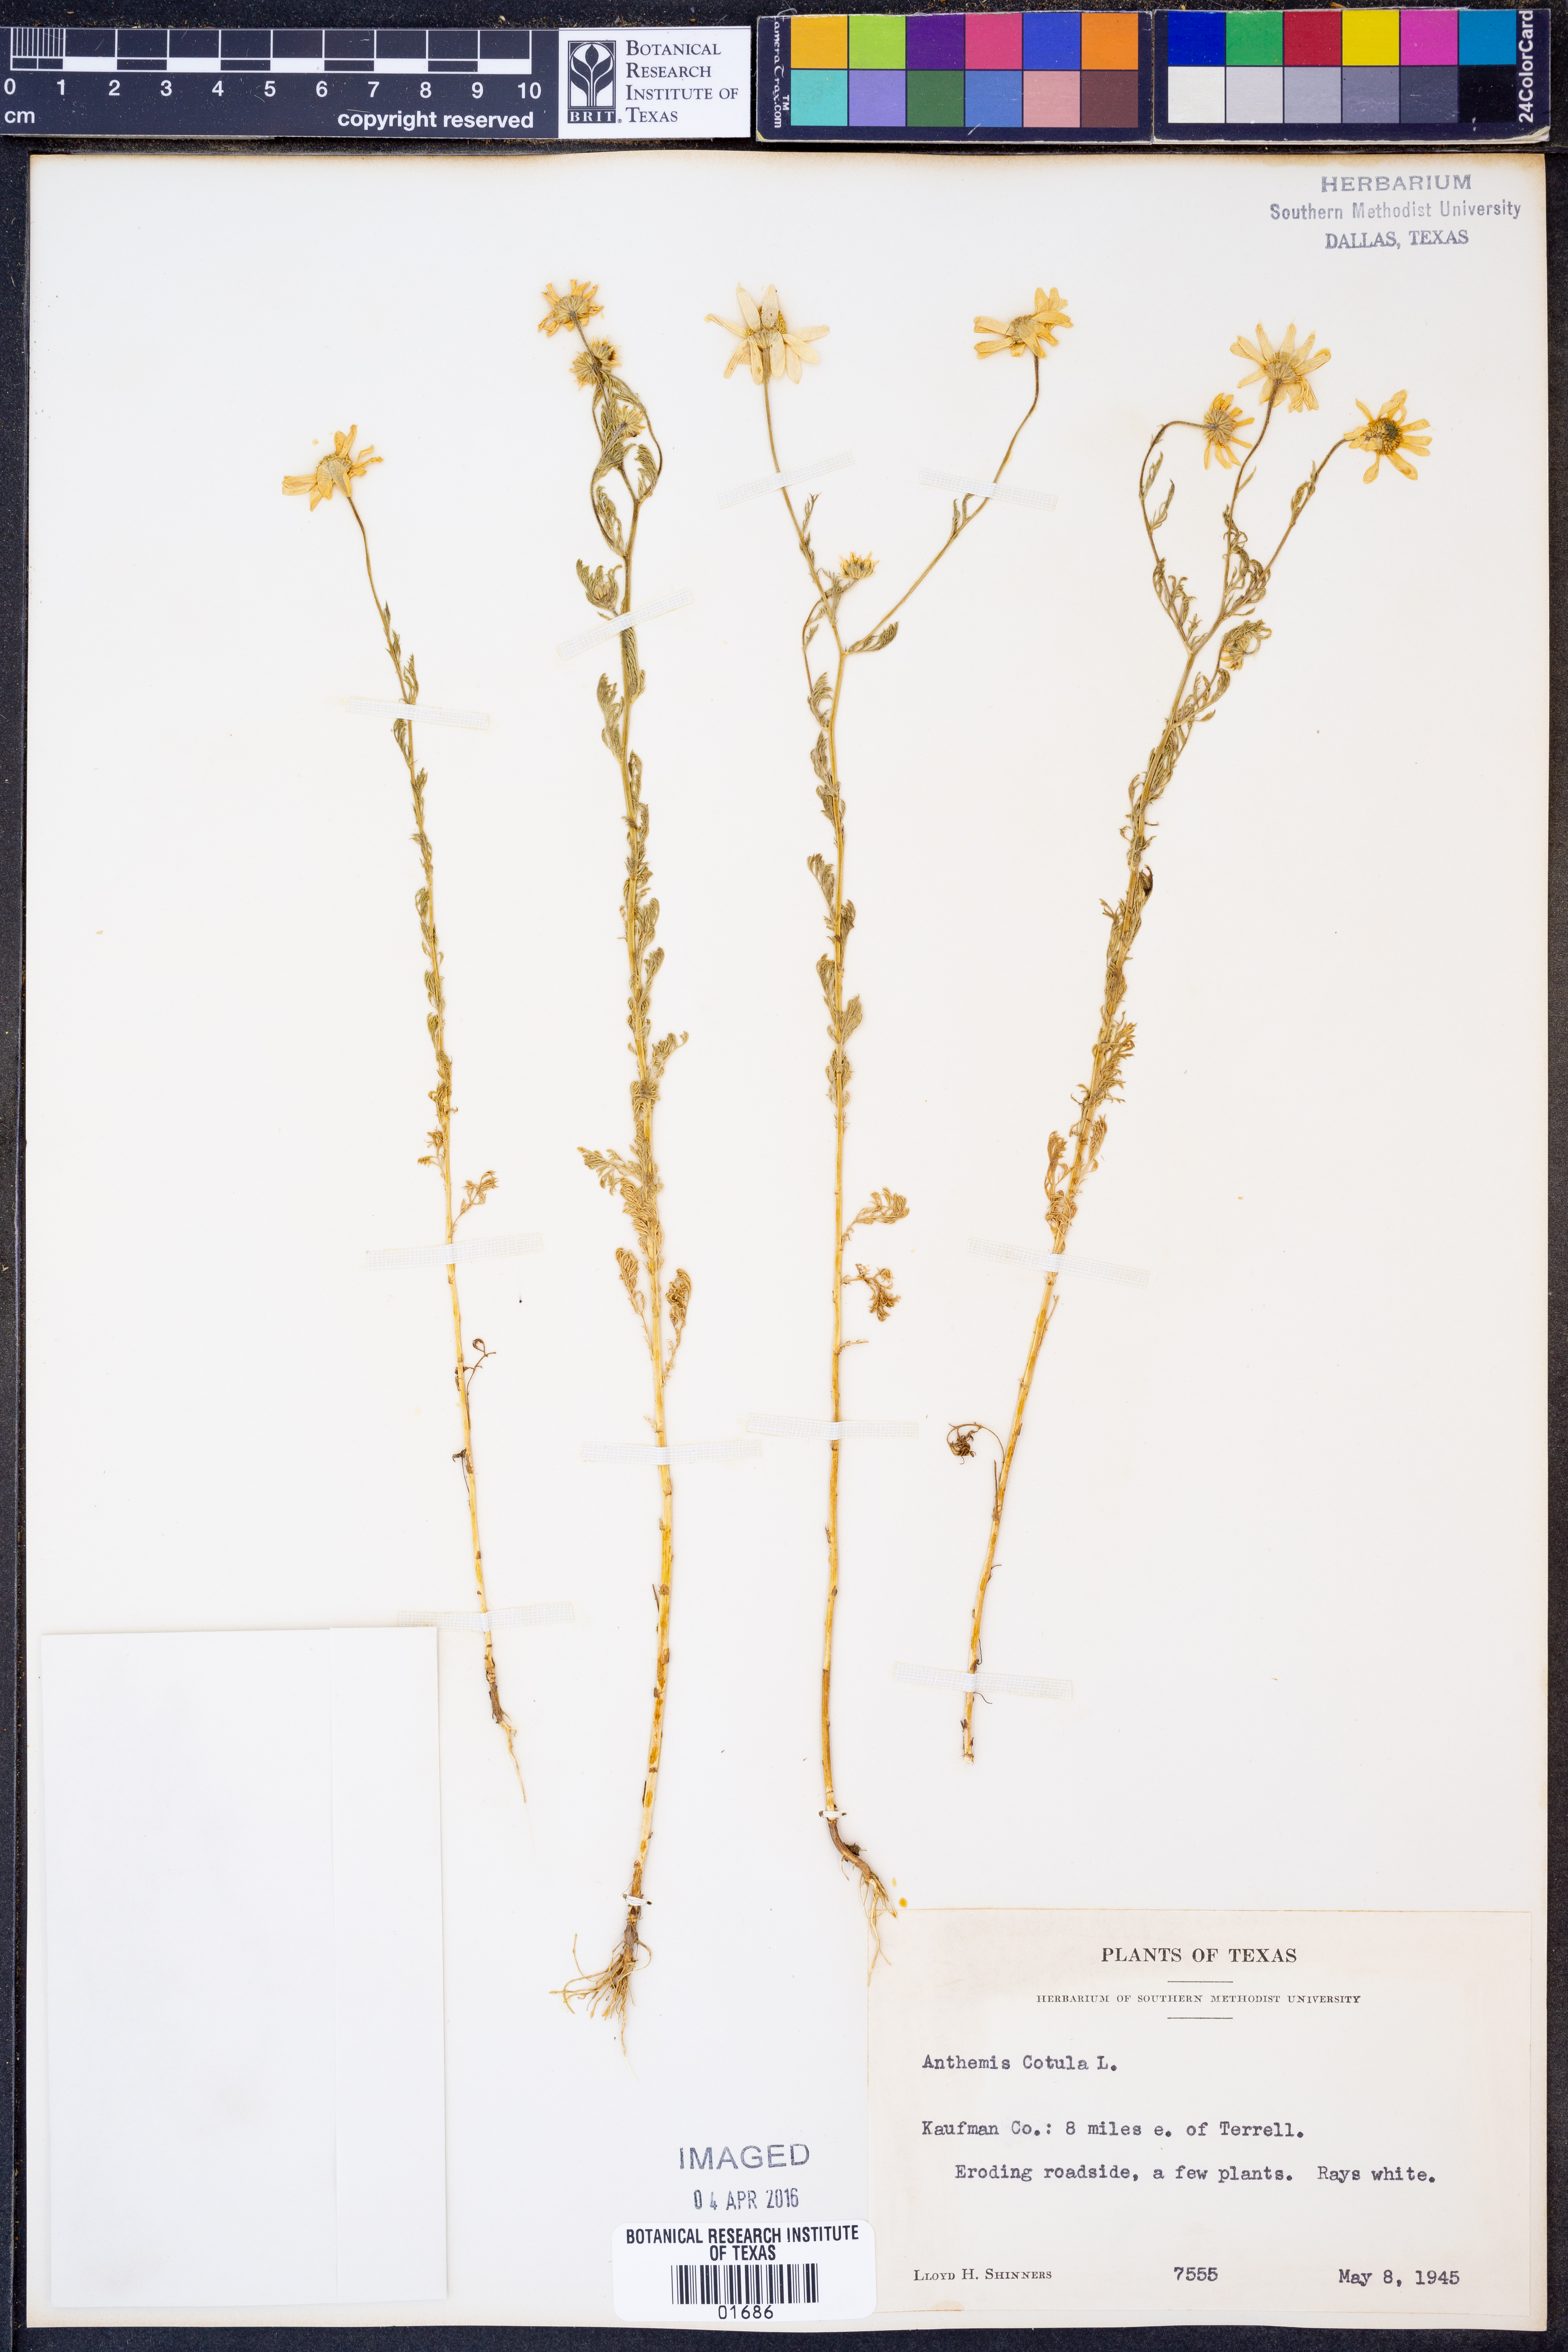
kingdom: Plantae
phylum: Tracheophyta
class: Magnoliopsida
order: Asterales
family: Asteraceae
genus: Anthemis
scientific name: Anthemis cotula
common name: Stinking chamomile
